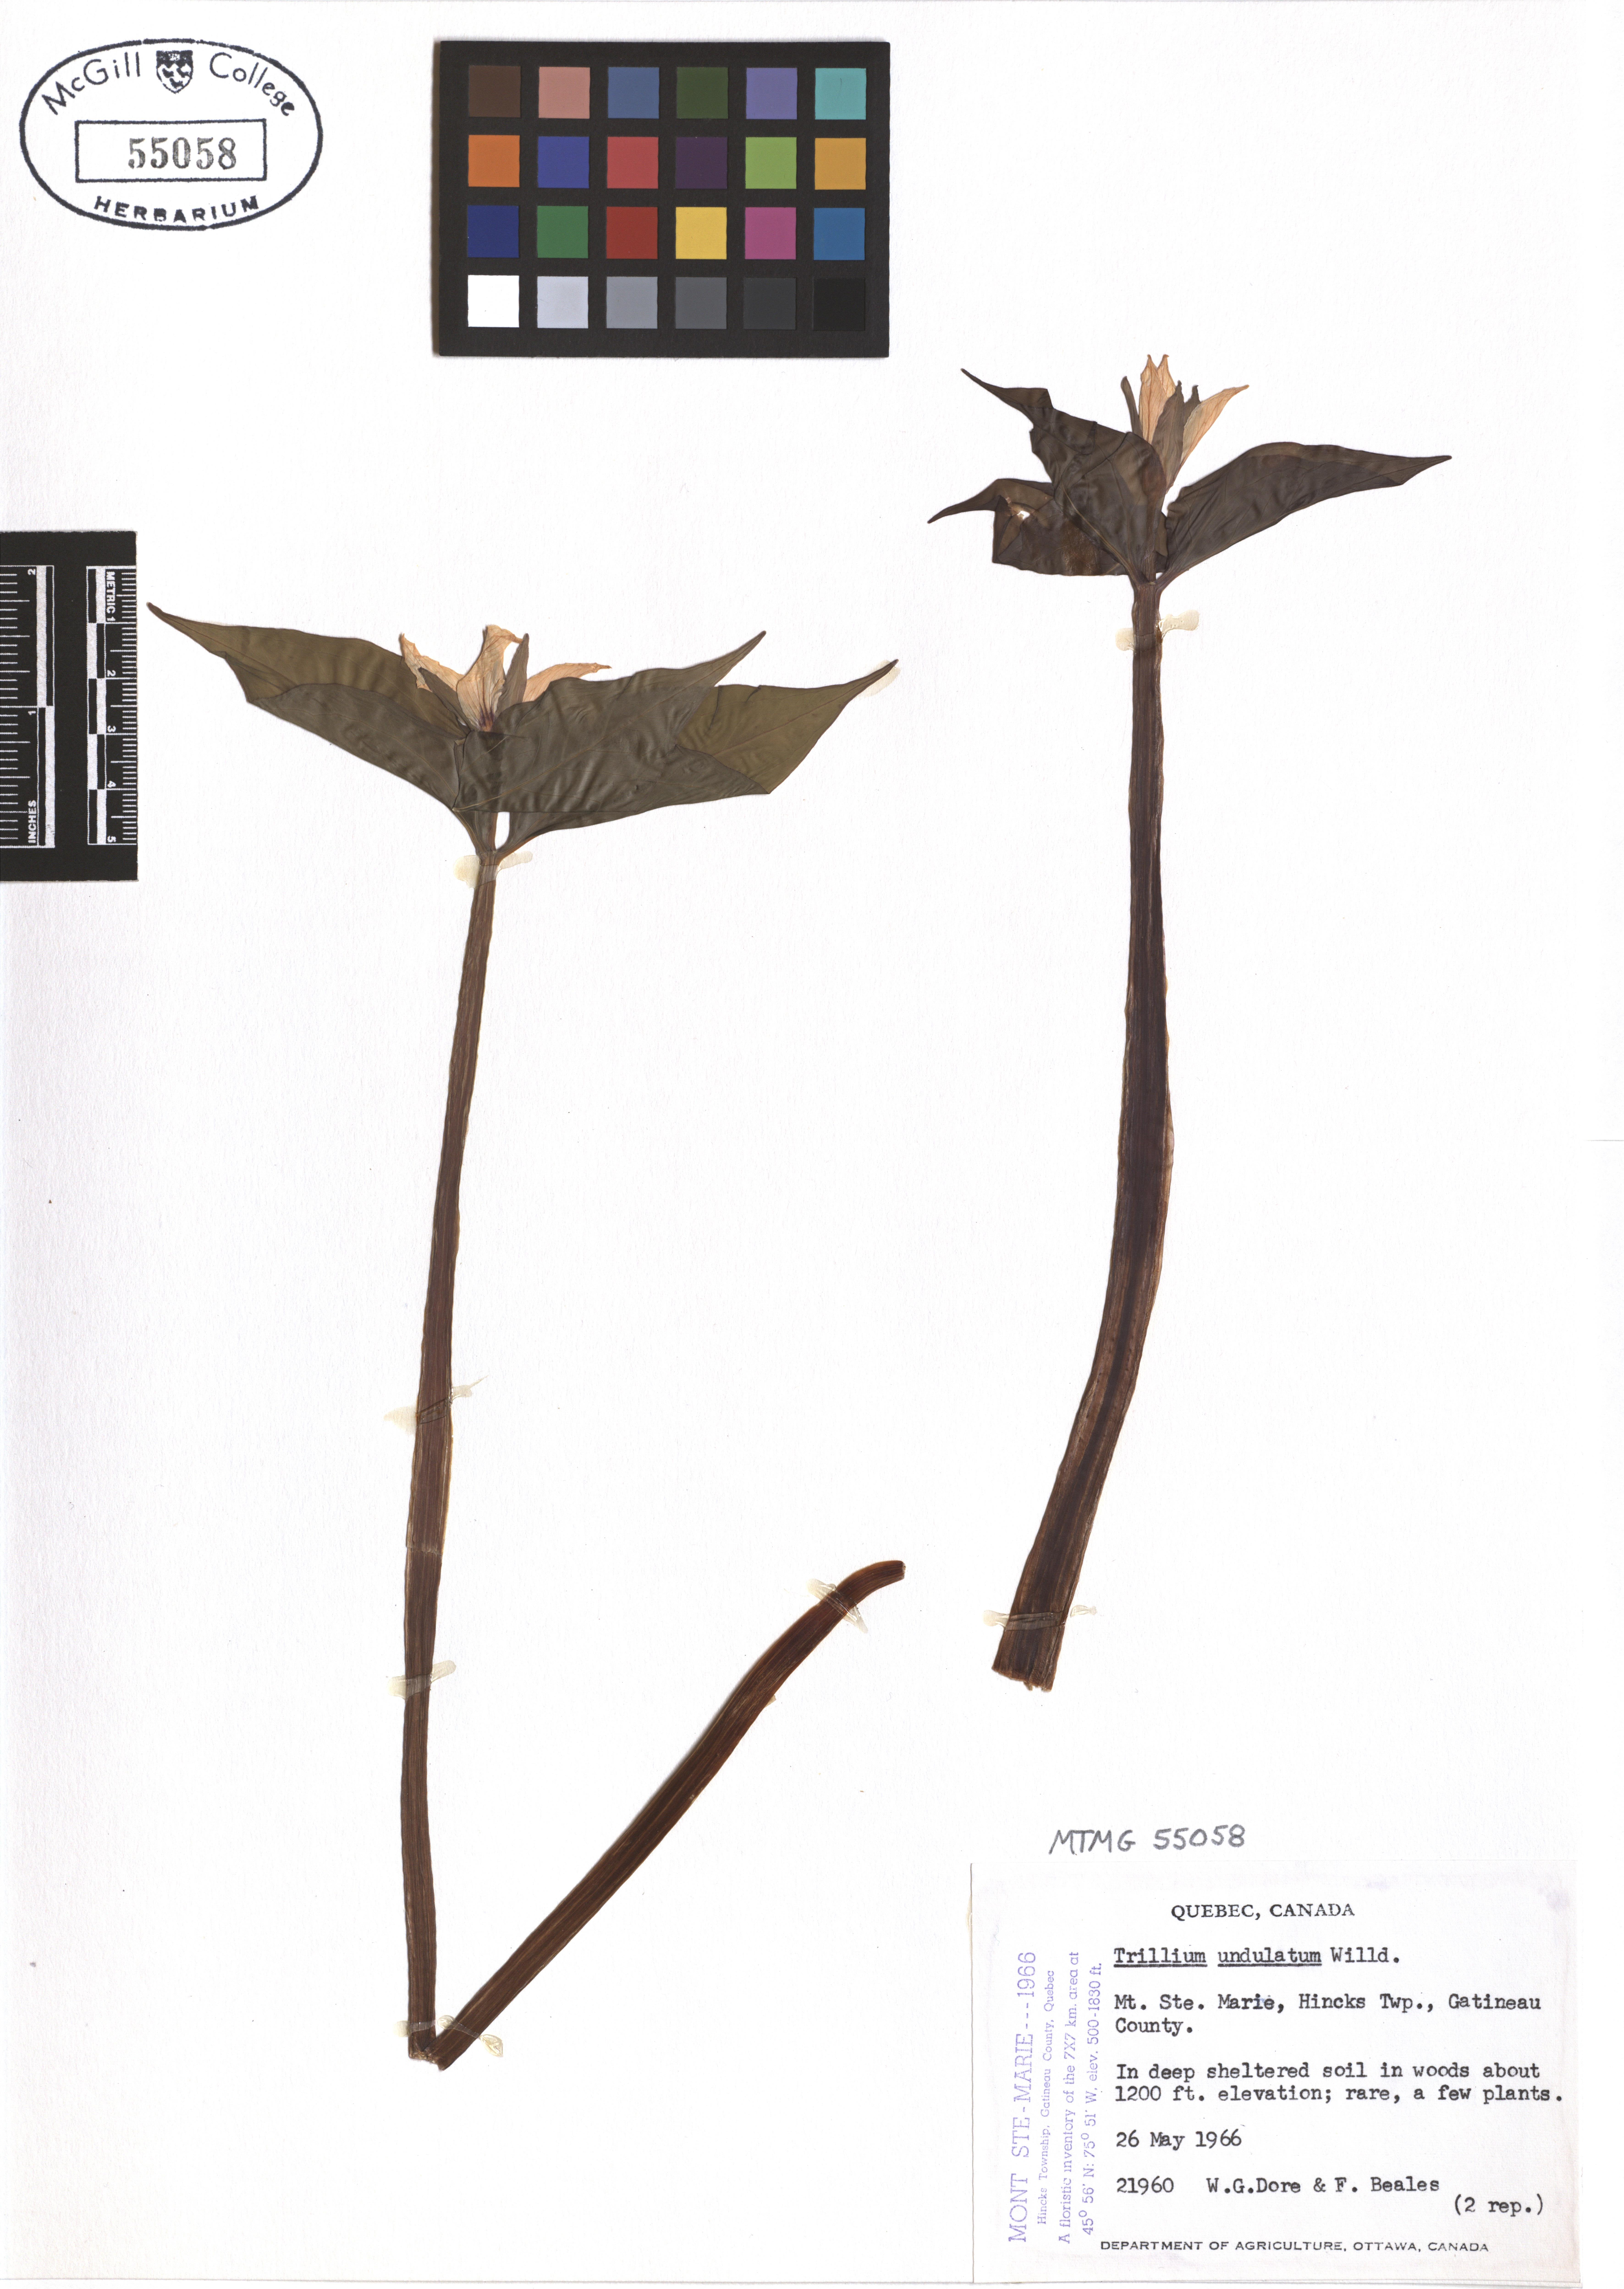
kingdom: Plantae
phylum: Tracheophyta
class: Liliopsida
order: Liliales
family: Melanthiaceae
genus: Trillium
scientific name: Trillium undulatum
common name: Paint trillium
